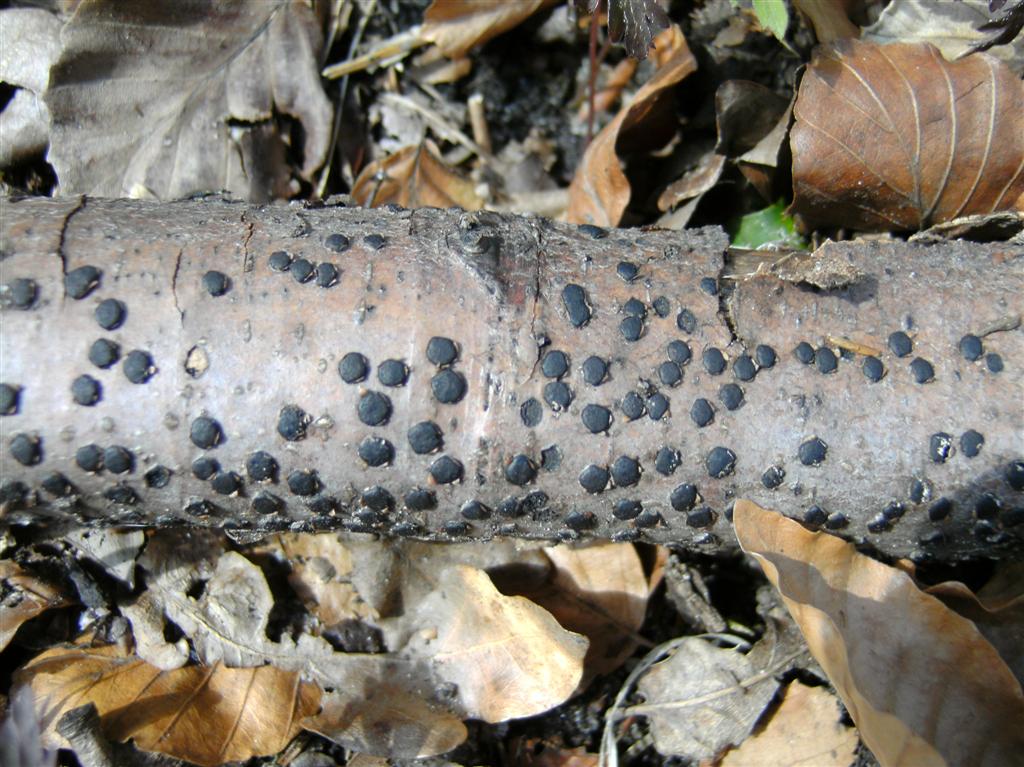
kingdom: Fungi
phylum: Ascomycota
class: Sordariomycetes
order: Xylariales
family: Diatrypaceae
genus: Diatrype
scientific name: Diatrype disciformis
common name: kant-kulskorpe
